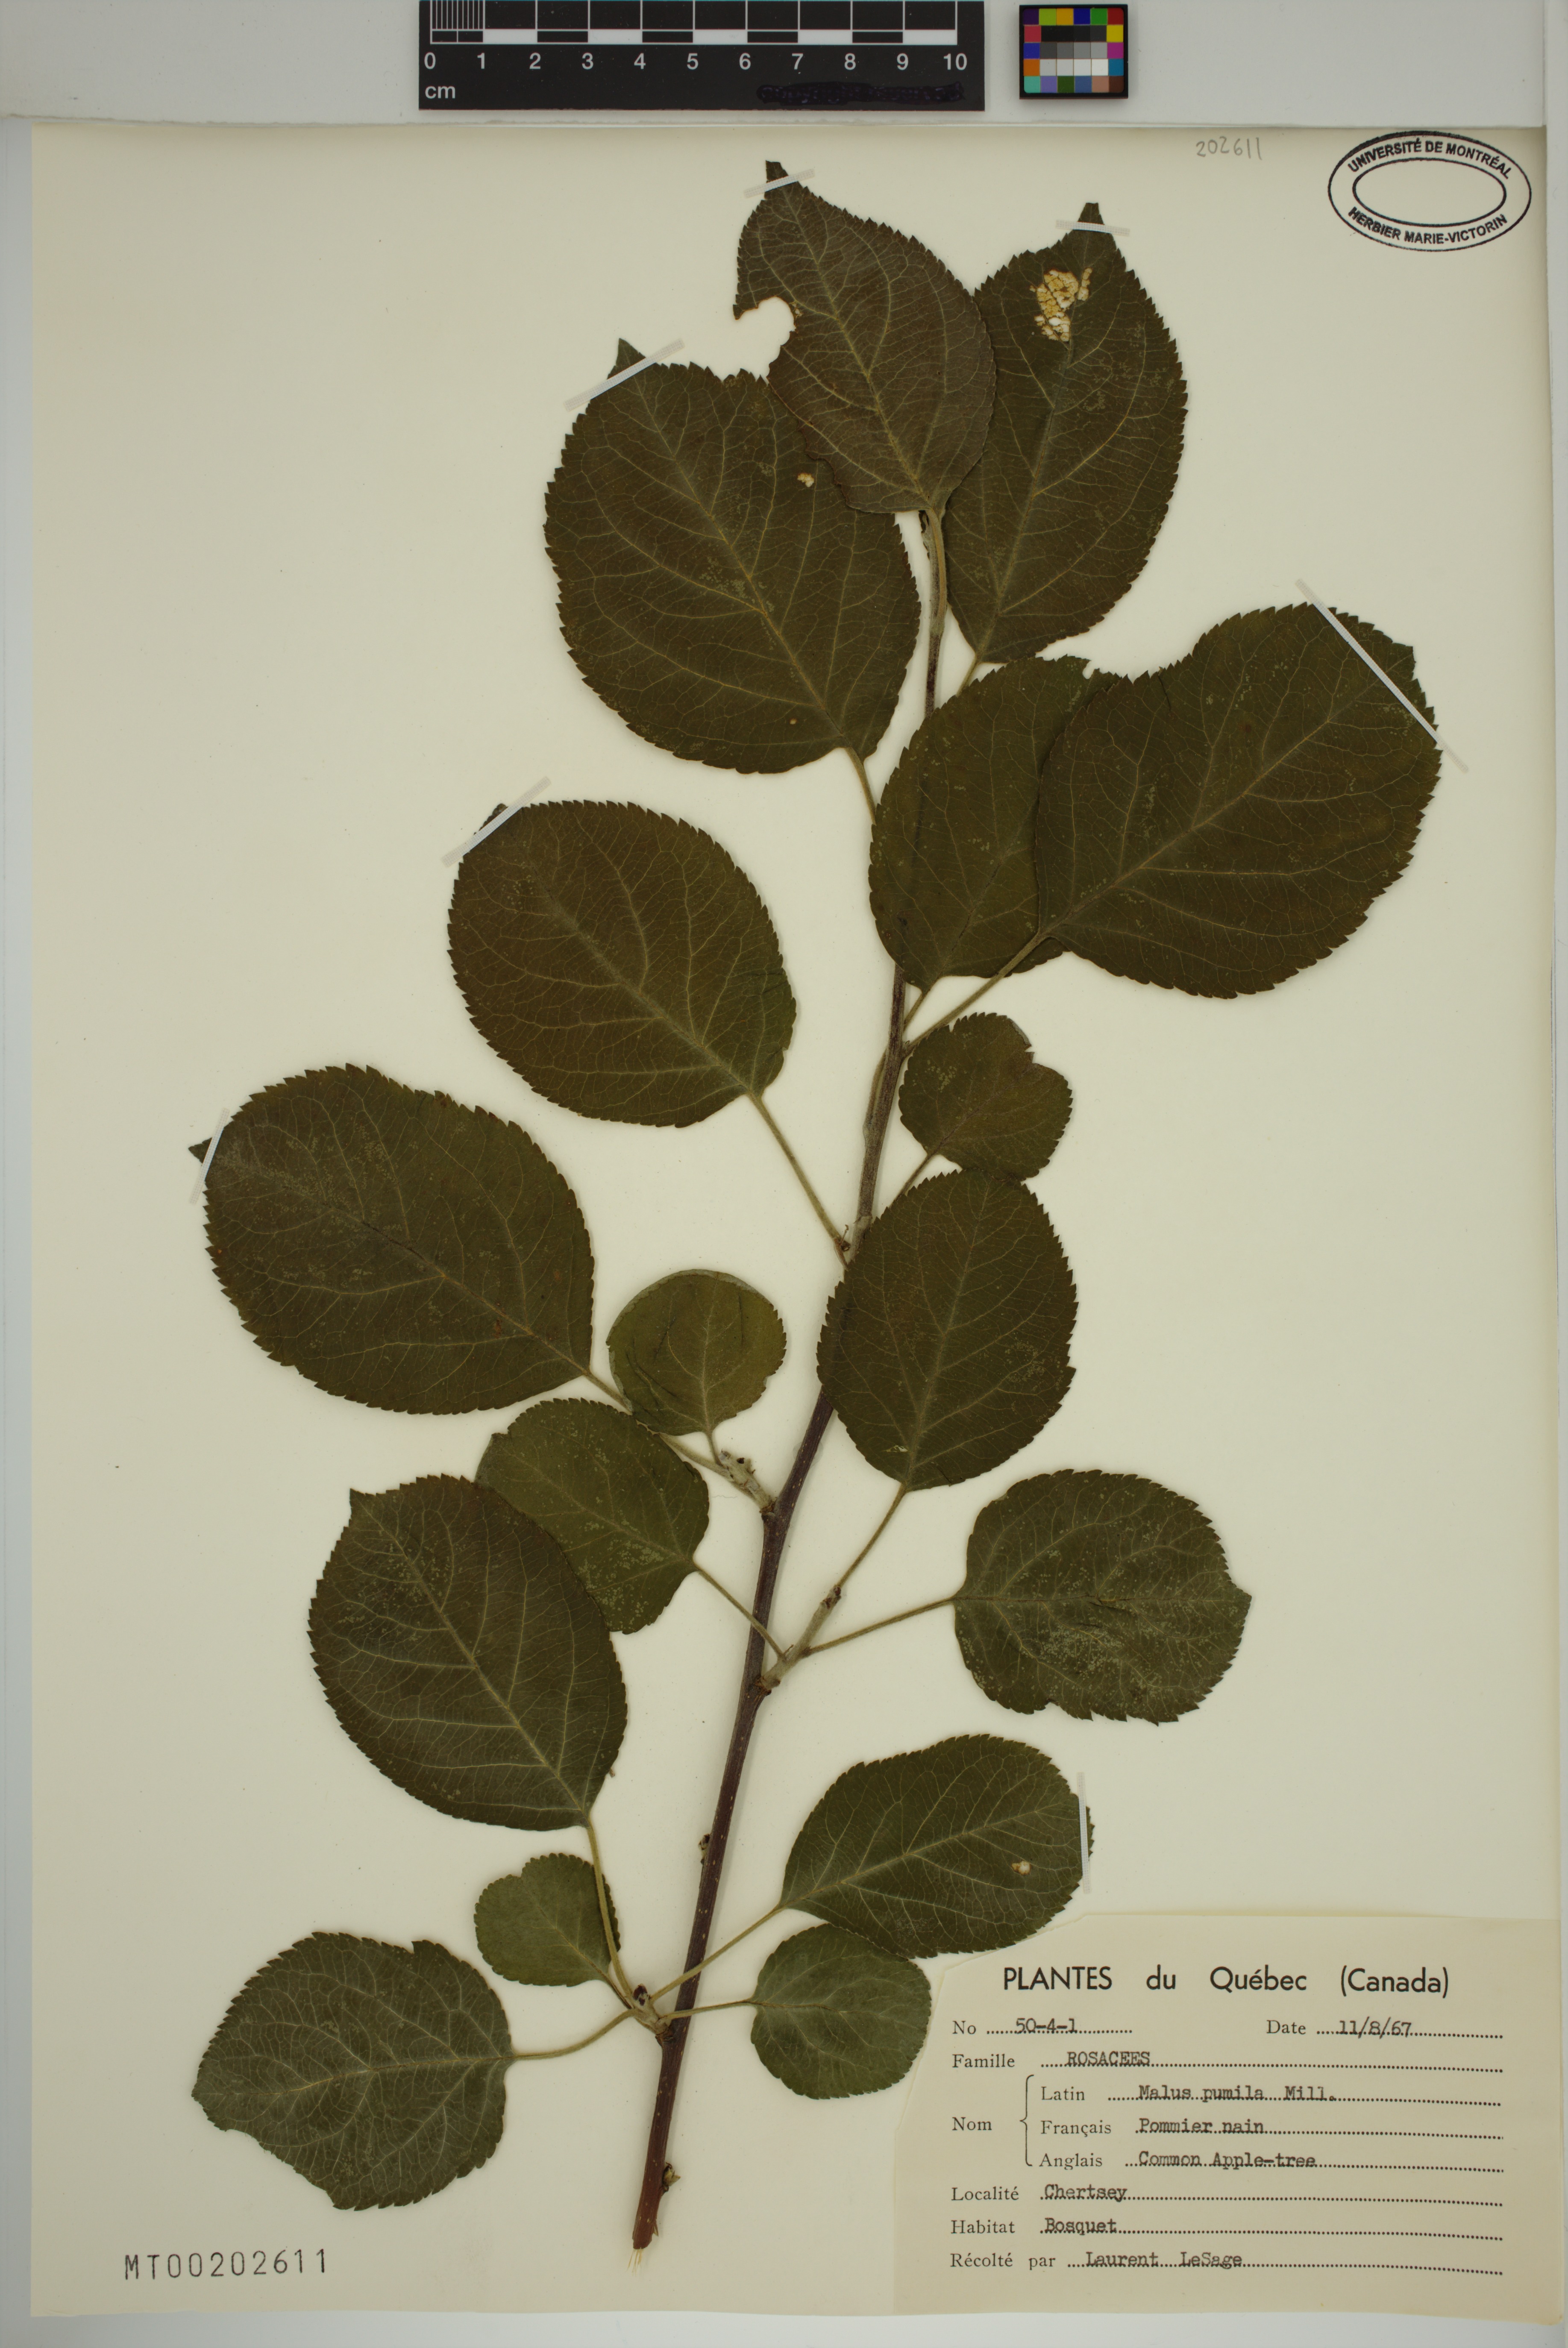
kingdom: Plantae
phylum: Tracheophyta
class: Magnoliopsida
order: Rosales
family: Rosaceae
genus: Malus
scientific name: Malus domestica
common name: Apple
